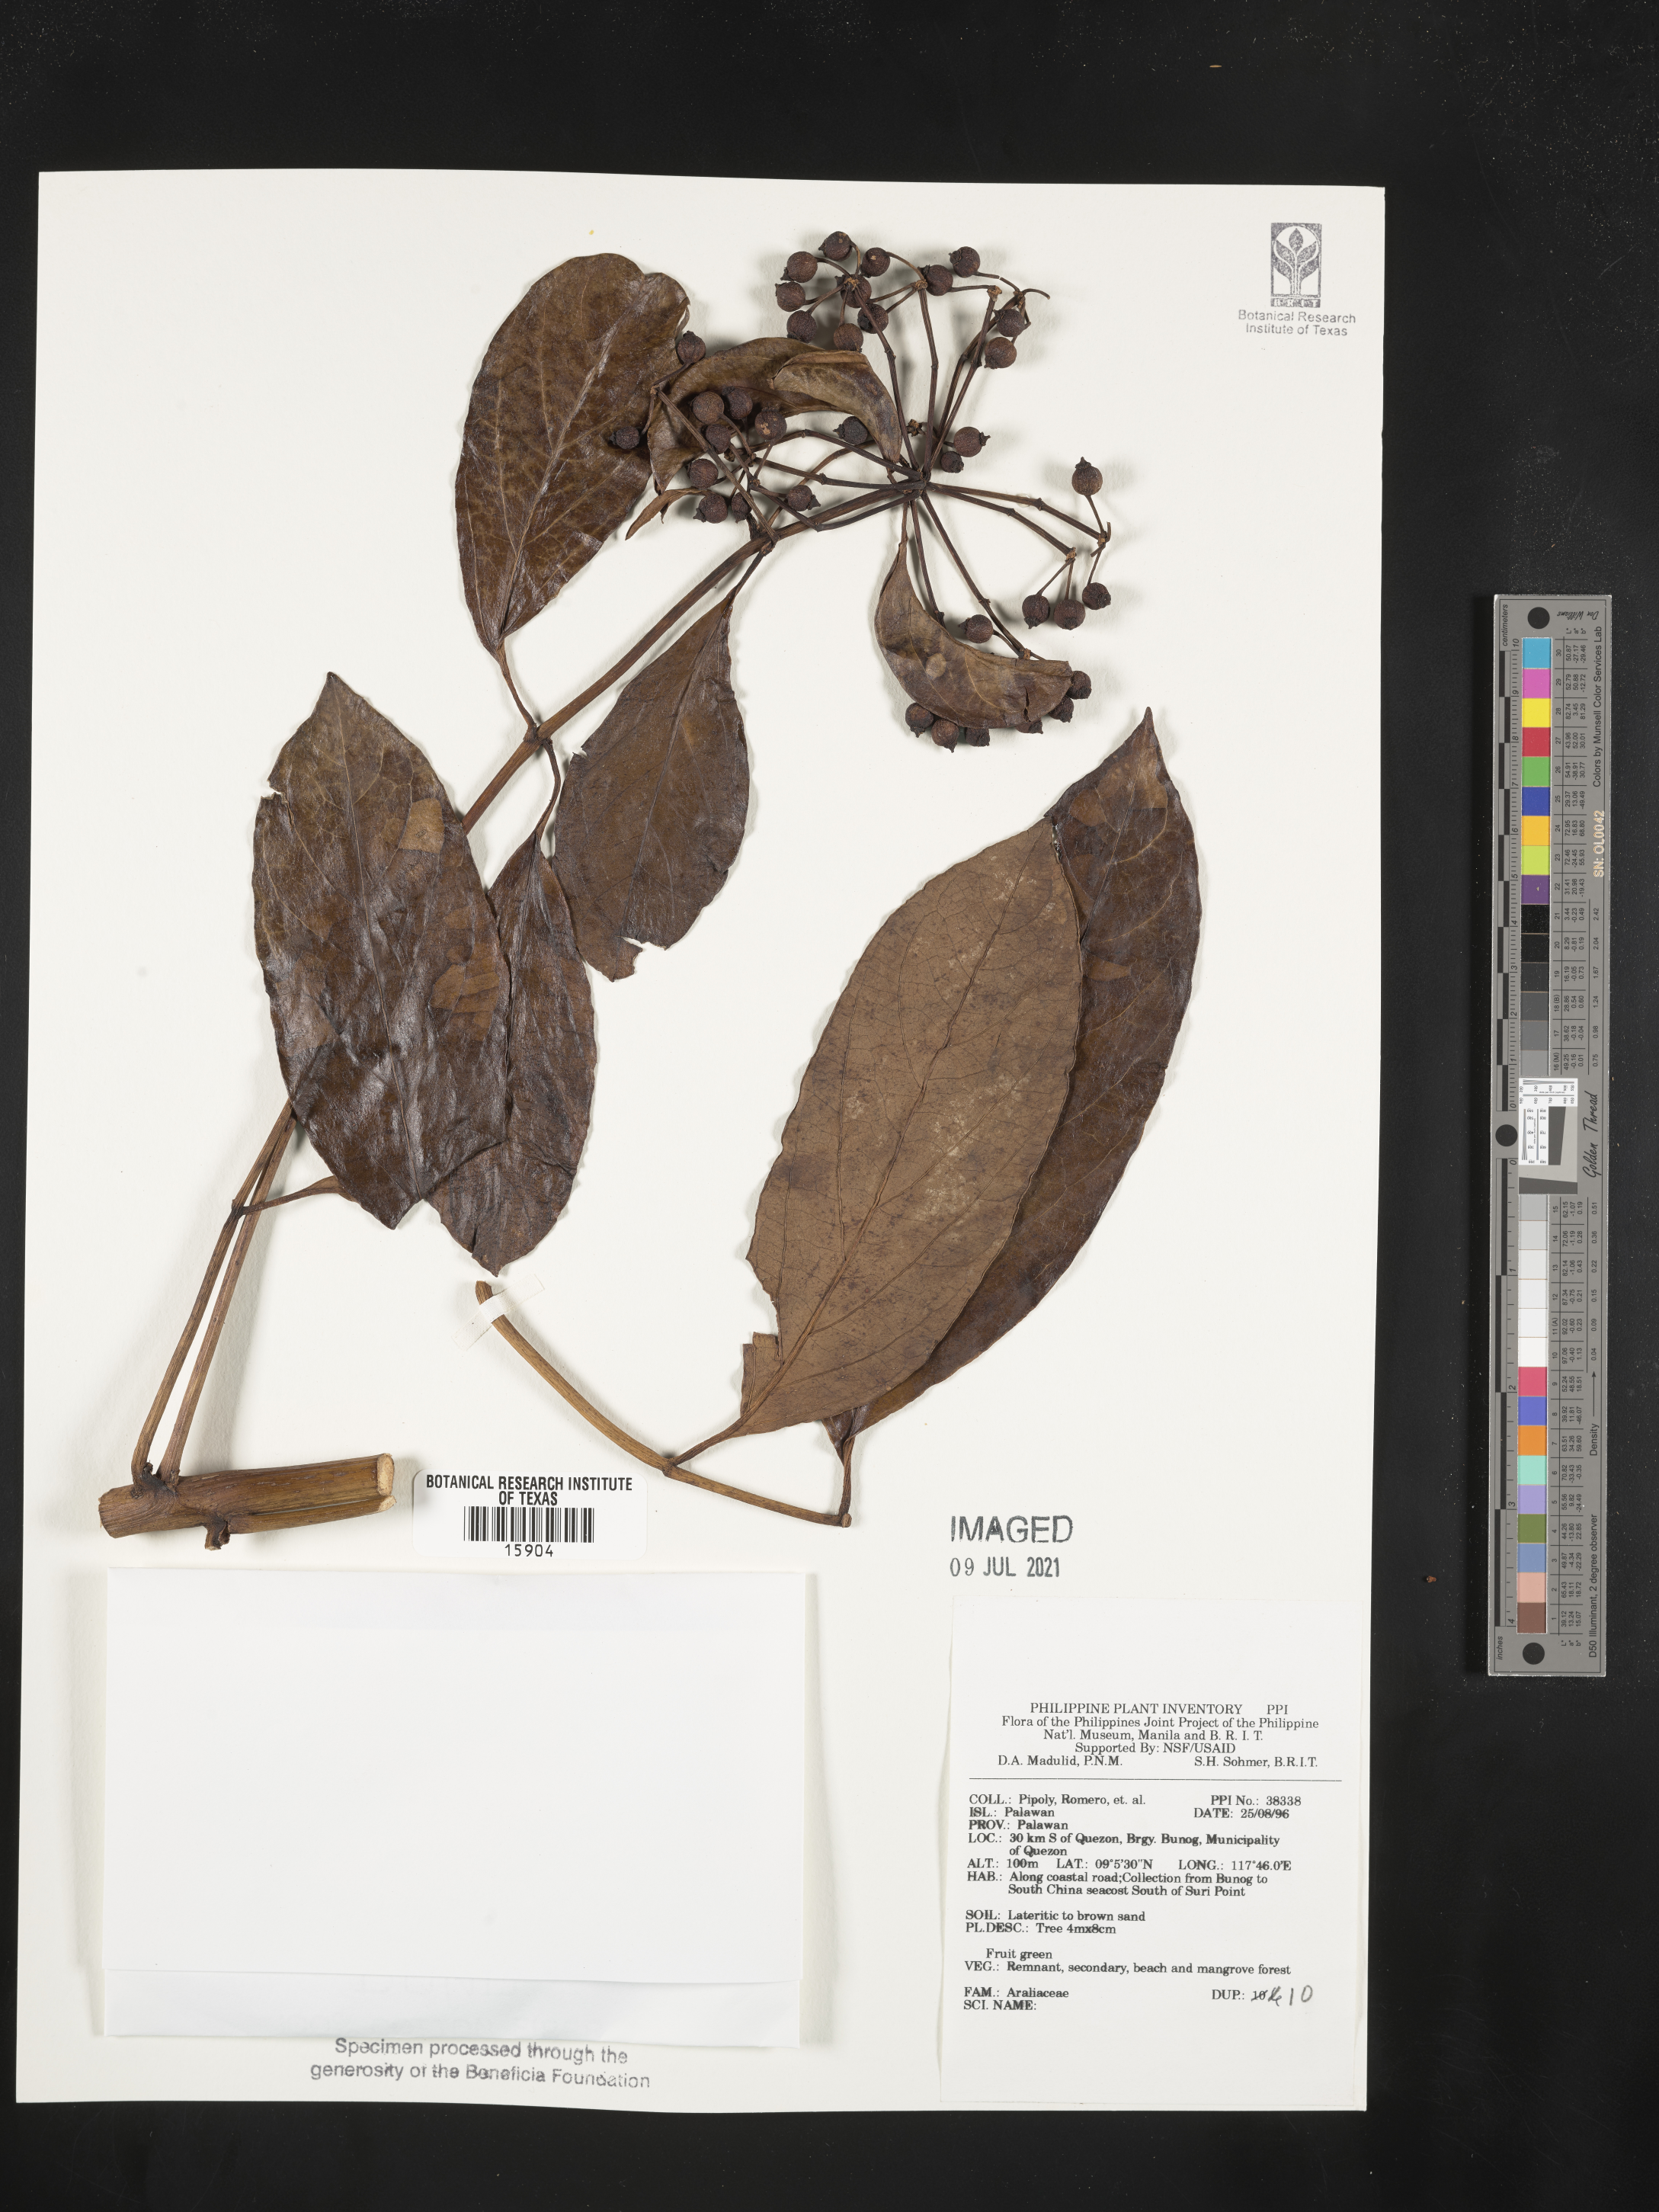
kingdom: Plantae
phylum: Tracheophyta
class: Magnoliopsida
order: Apiales
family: Araliaceae
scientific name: Araliaceae
